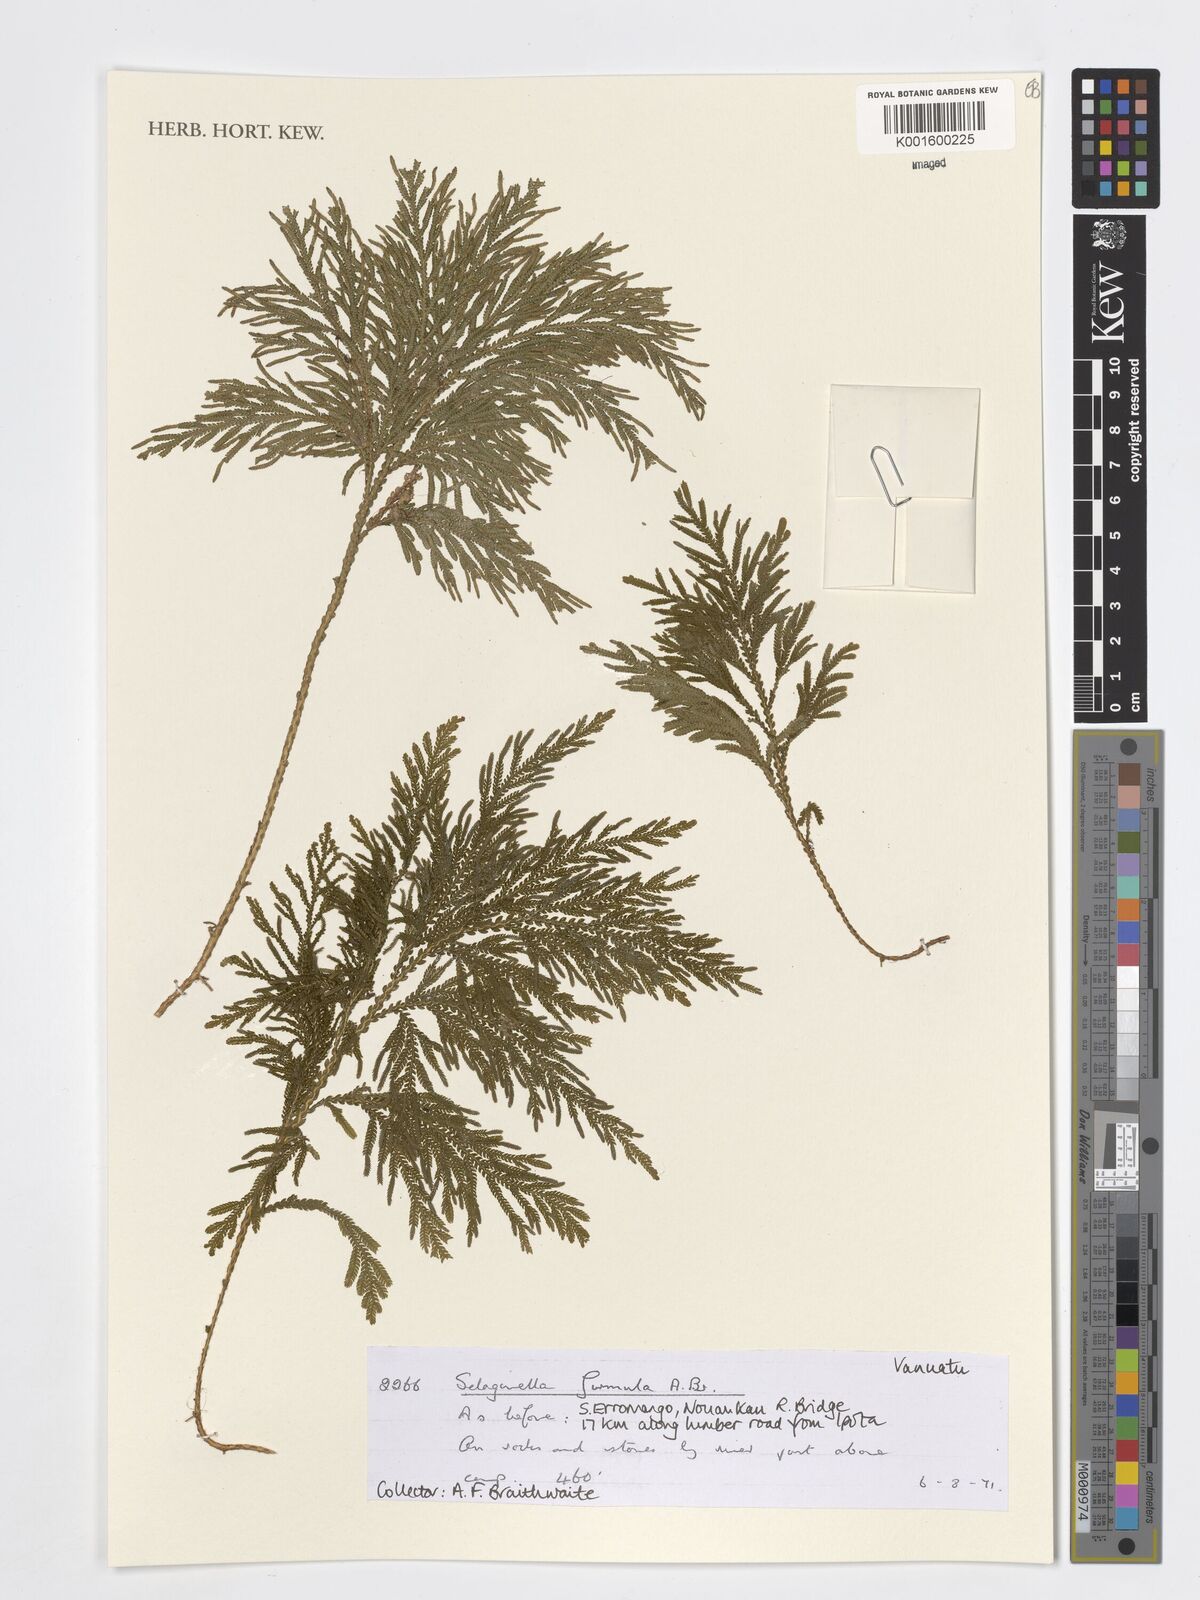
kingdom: Plantae
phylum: Tracheophyta
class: Lycopodiopsida
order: Selaginellales
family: Selaginellaceae
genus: Selaginella
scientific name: Selaginella firmula
